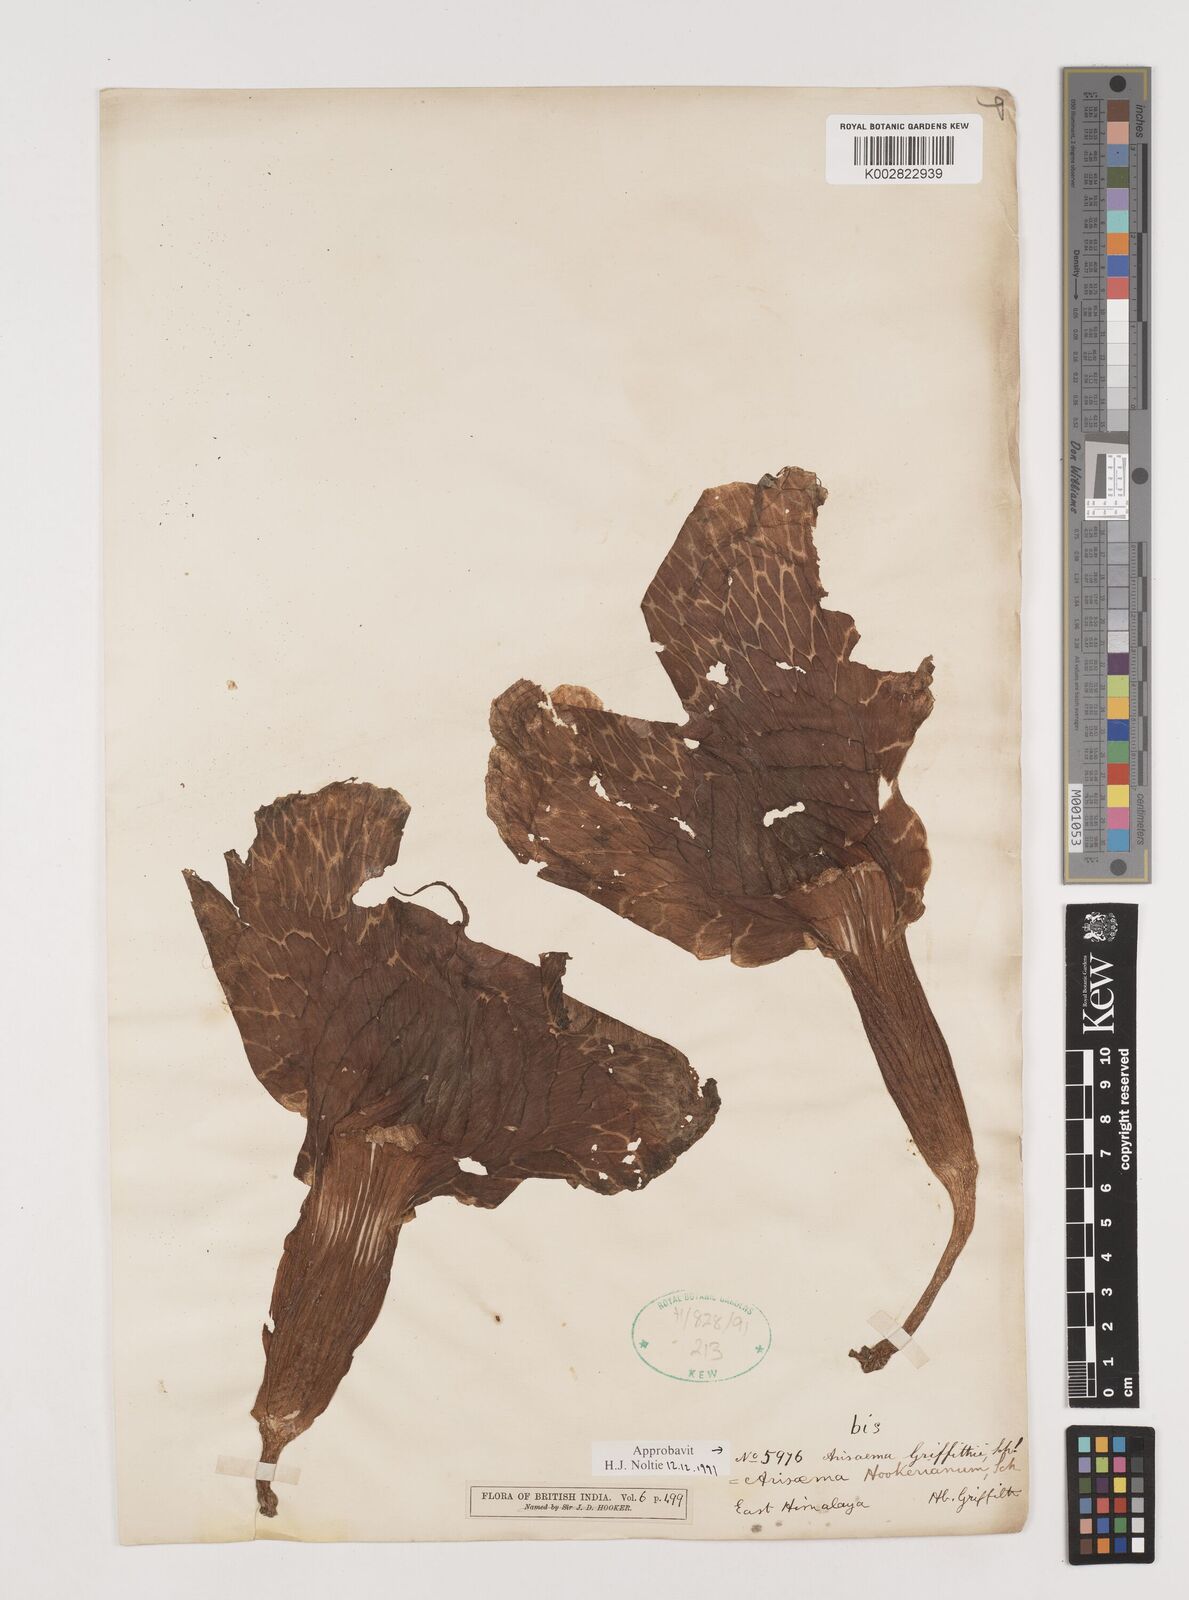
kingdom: Plantae
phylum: Tracheophyta
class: Liliopsida
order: Alismatales
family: Araceae
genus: Arisaema
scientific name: Arisaema griffithii
